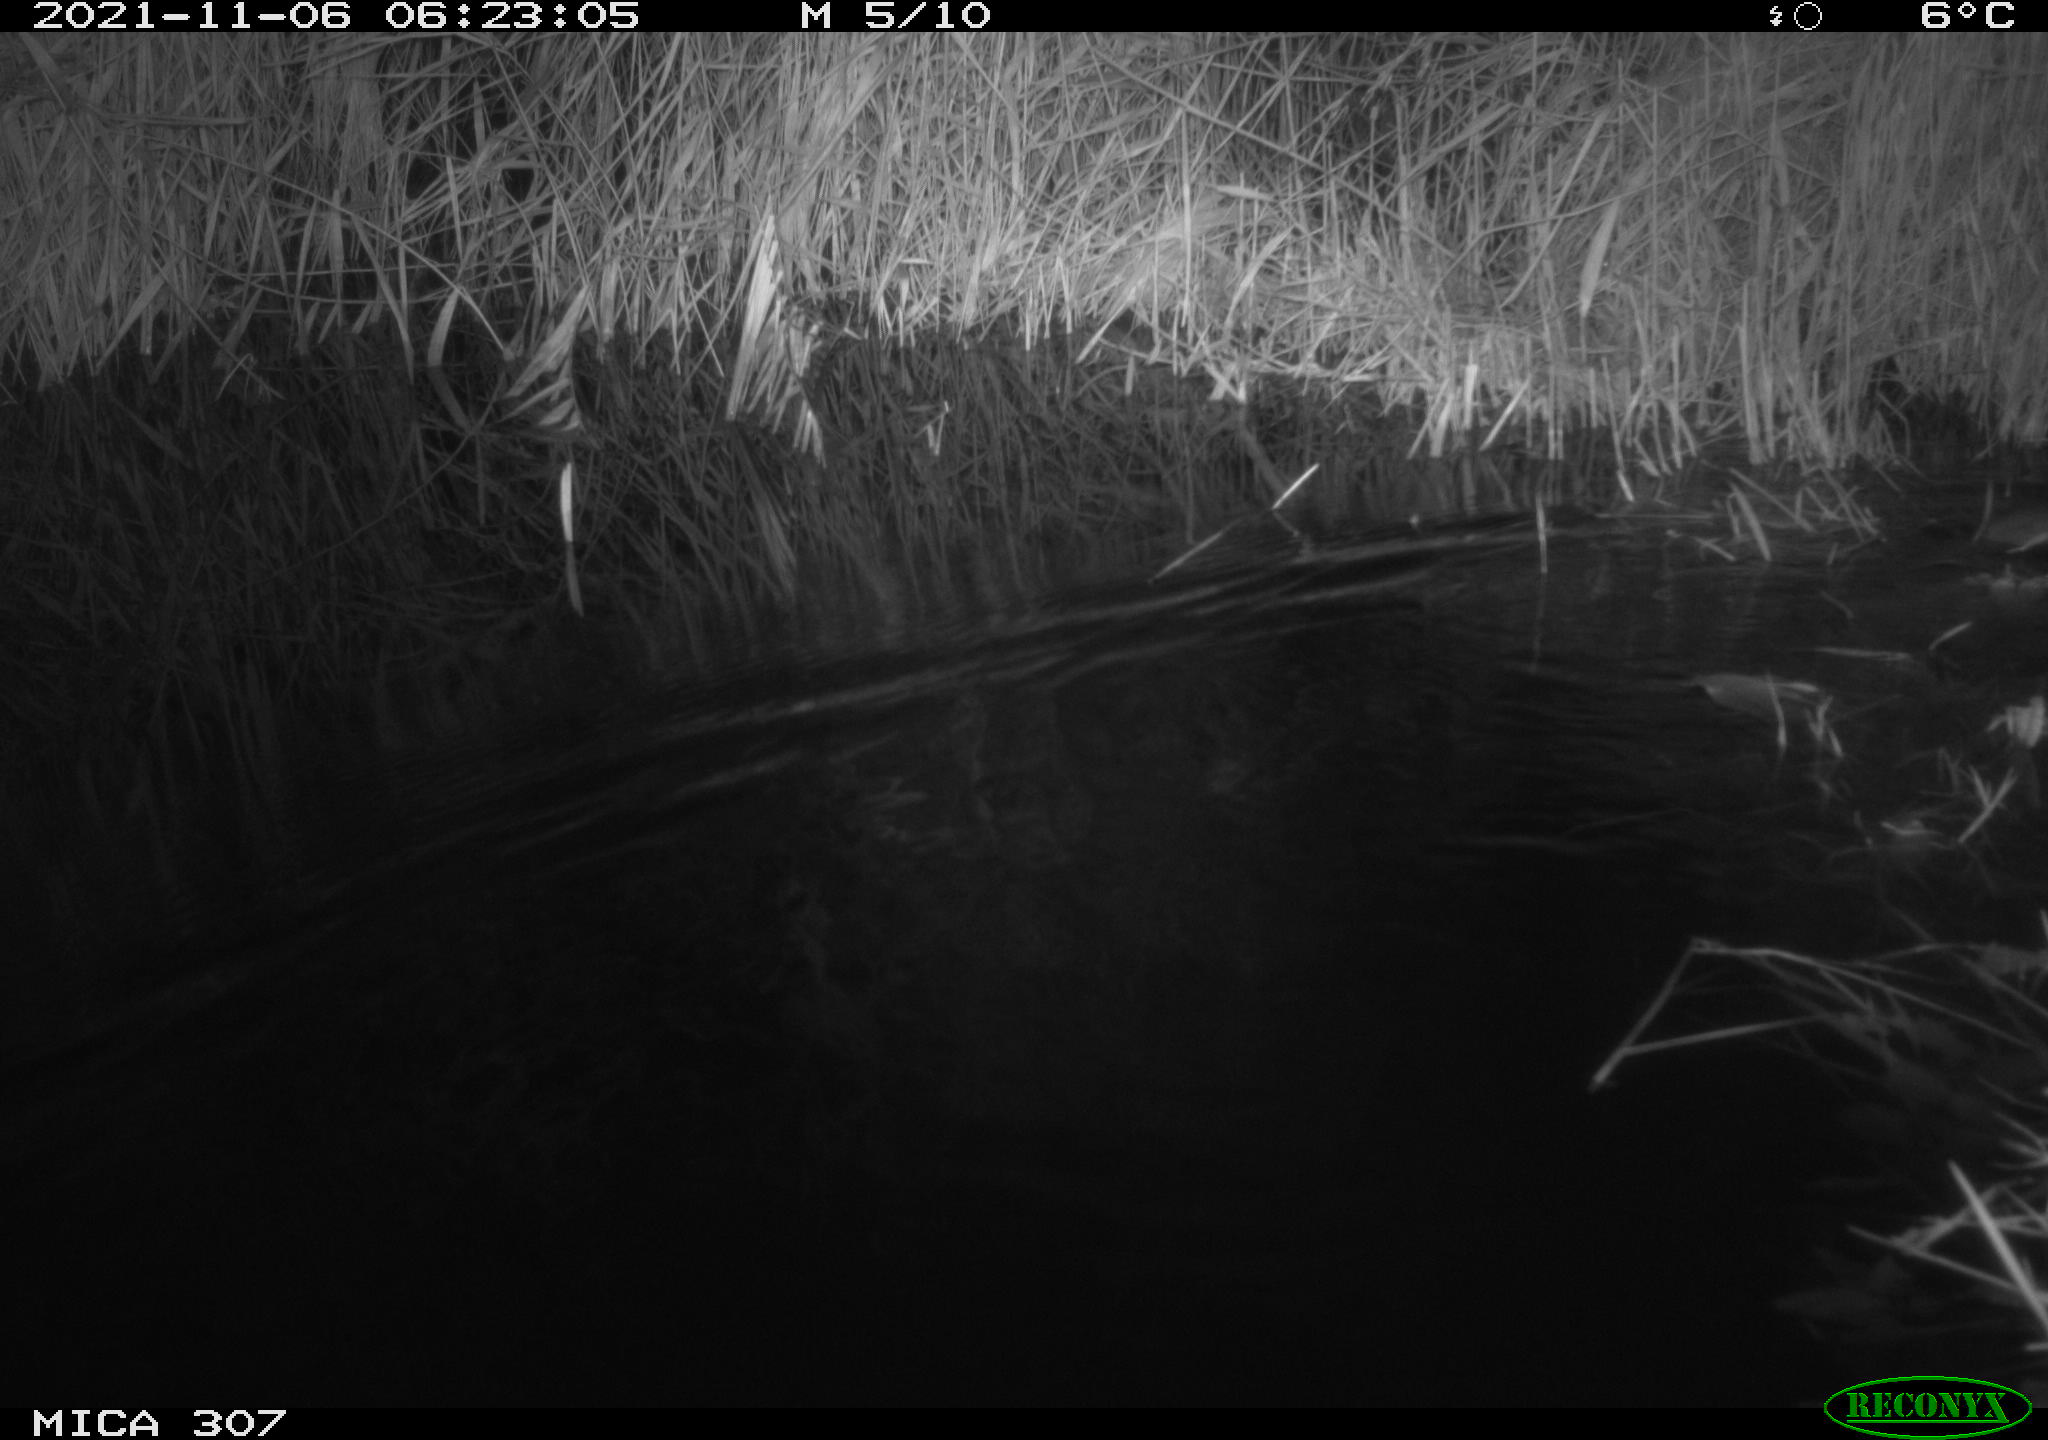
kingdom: Animalia
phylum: Chordata
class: Mammalia
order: Rodentia
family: Muridae
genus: Rattus
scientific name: Rattus norvegicus
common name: Brown rat
